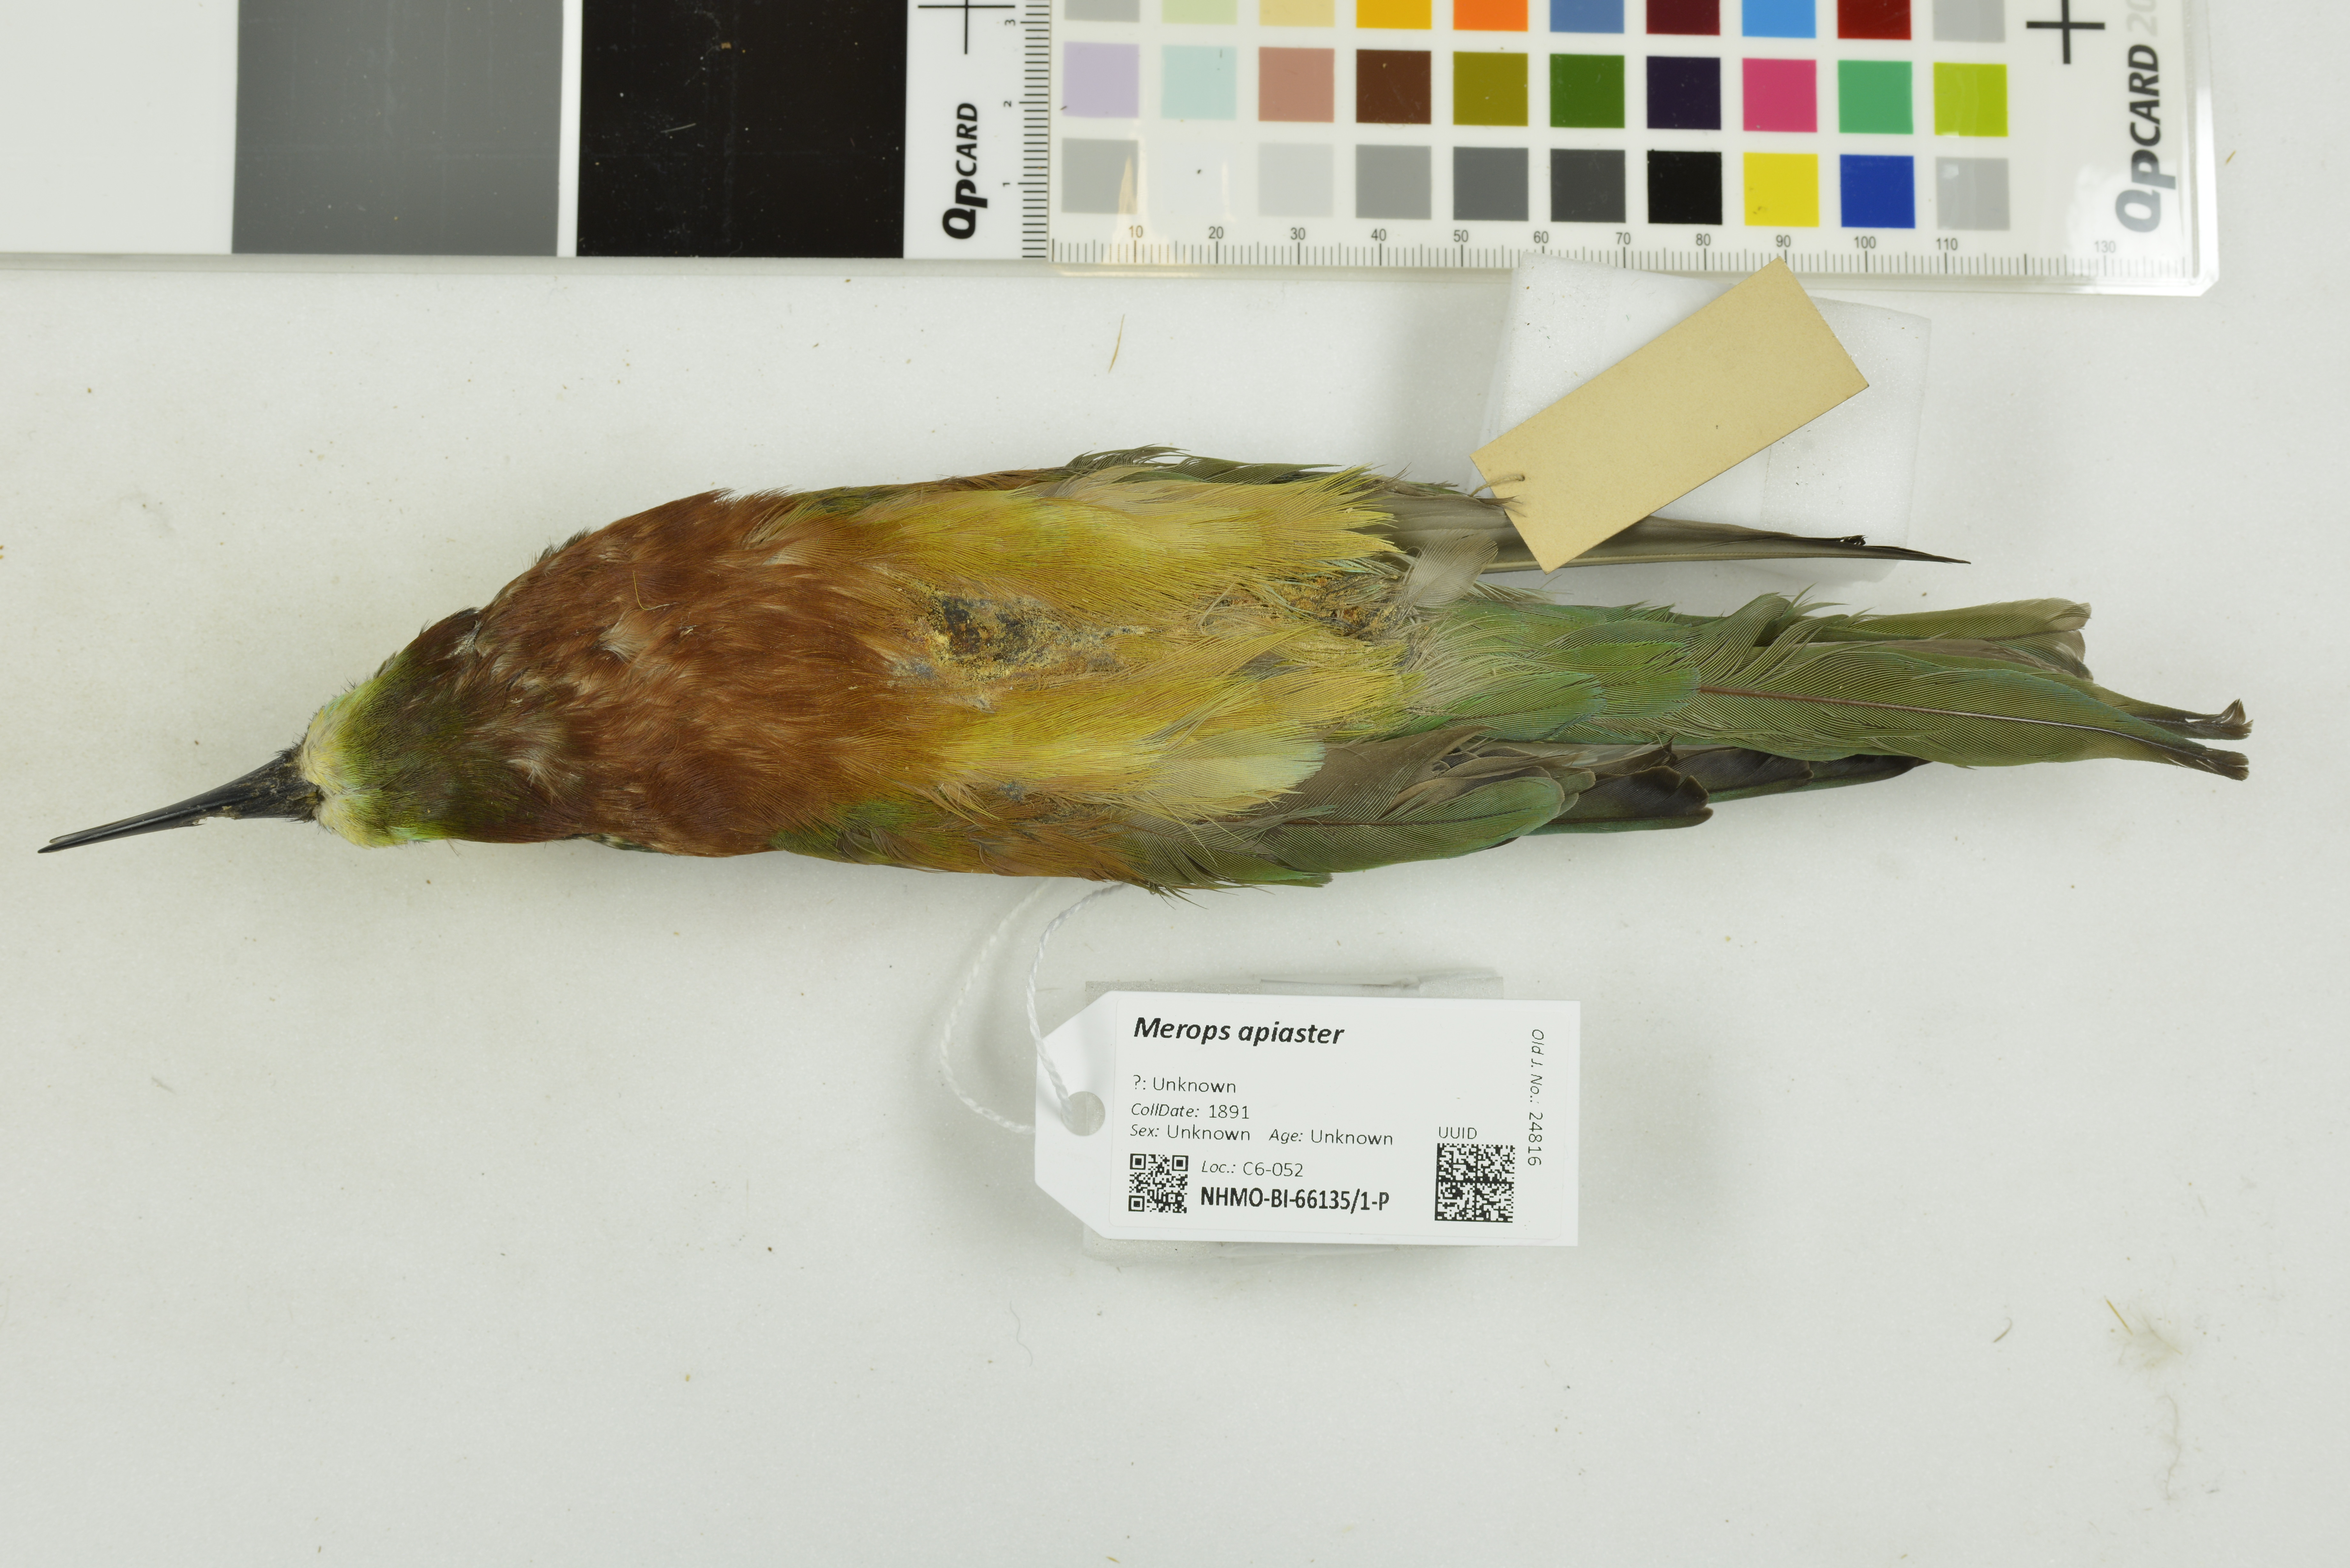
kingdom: Animalia
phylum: Chordata
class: Aves
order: Coraciiformes
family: Meropidae
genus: Merops
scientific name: Merops apiaster
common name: European bee-eater
